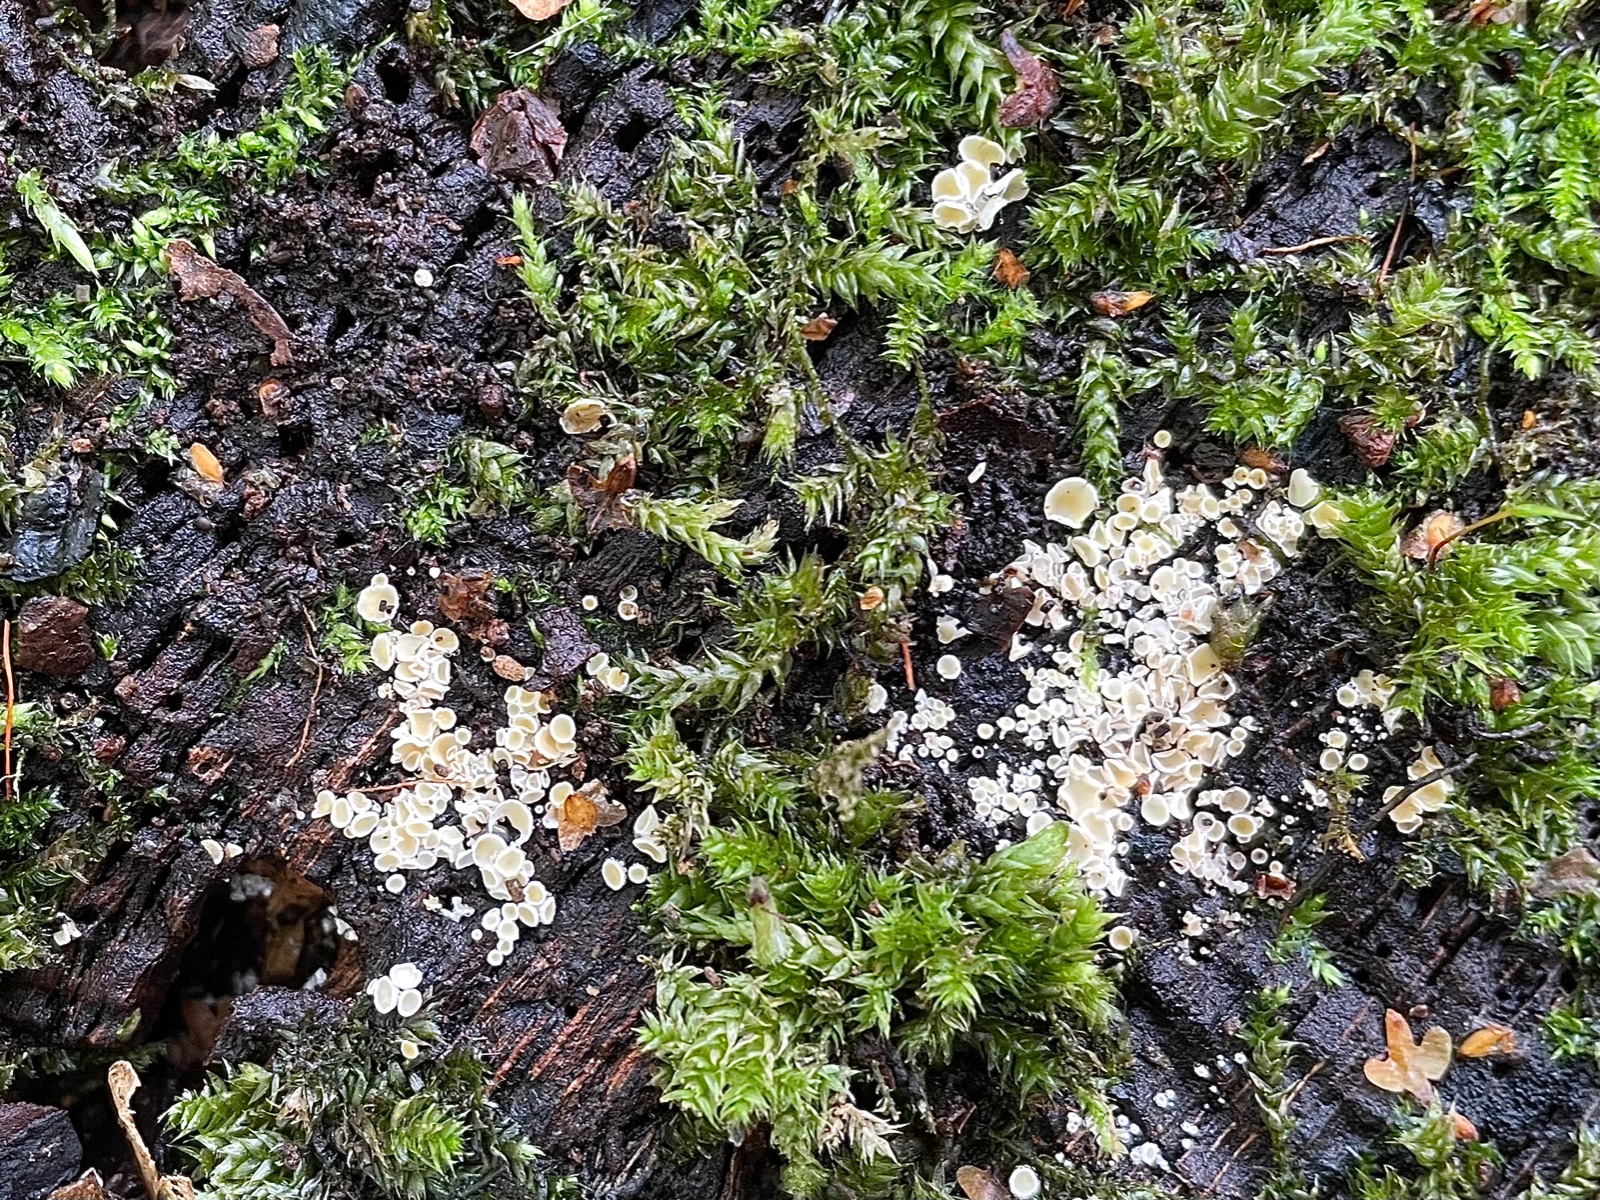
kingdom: Fungi
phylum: Ascomycota
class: Leotiomycetes
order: Helotiales
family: Lachnaceae
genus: Lachnum
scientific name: Lachnum
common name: frynseskive
